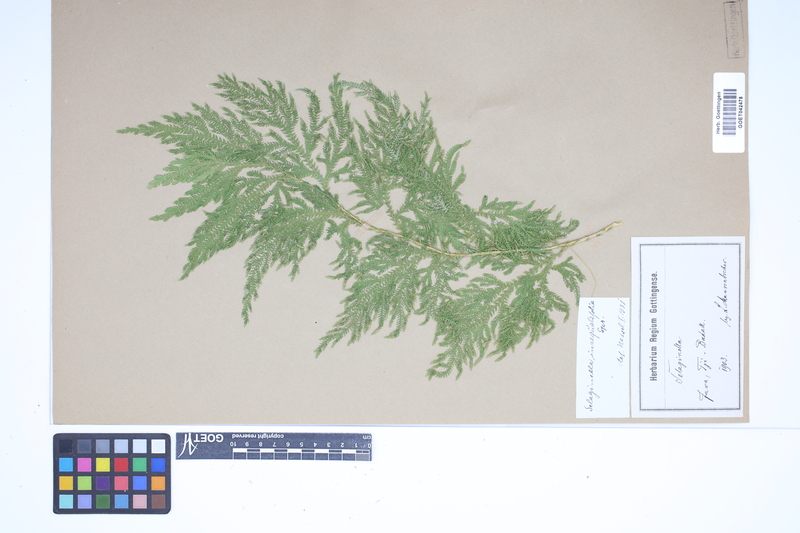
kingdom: Plantae
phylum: Tracheophyta
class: Lycopodiopsida
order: Selaginellales
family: Selaginellaceae
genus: Selaginella
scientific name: Selaginella inaequalifolia
